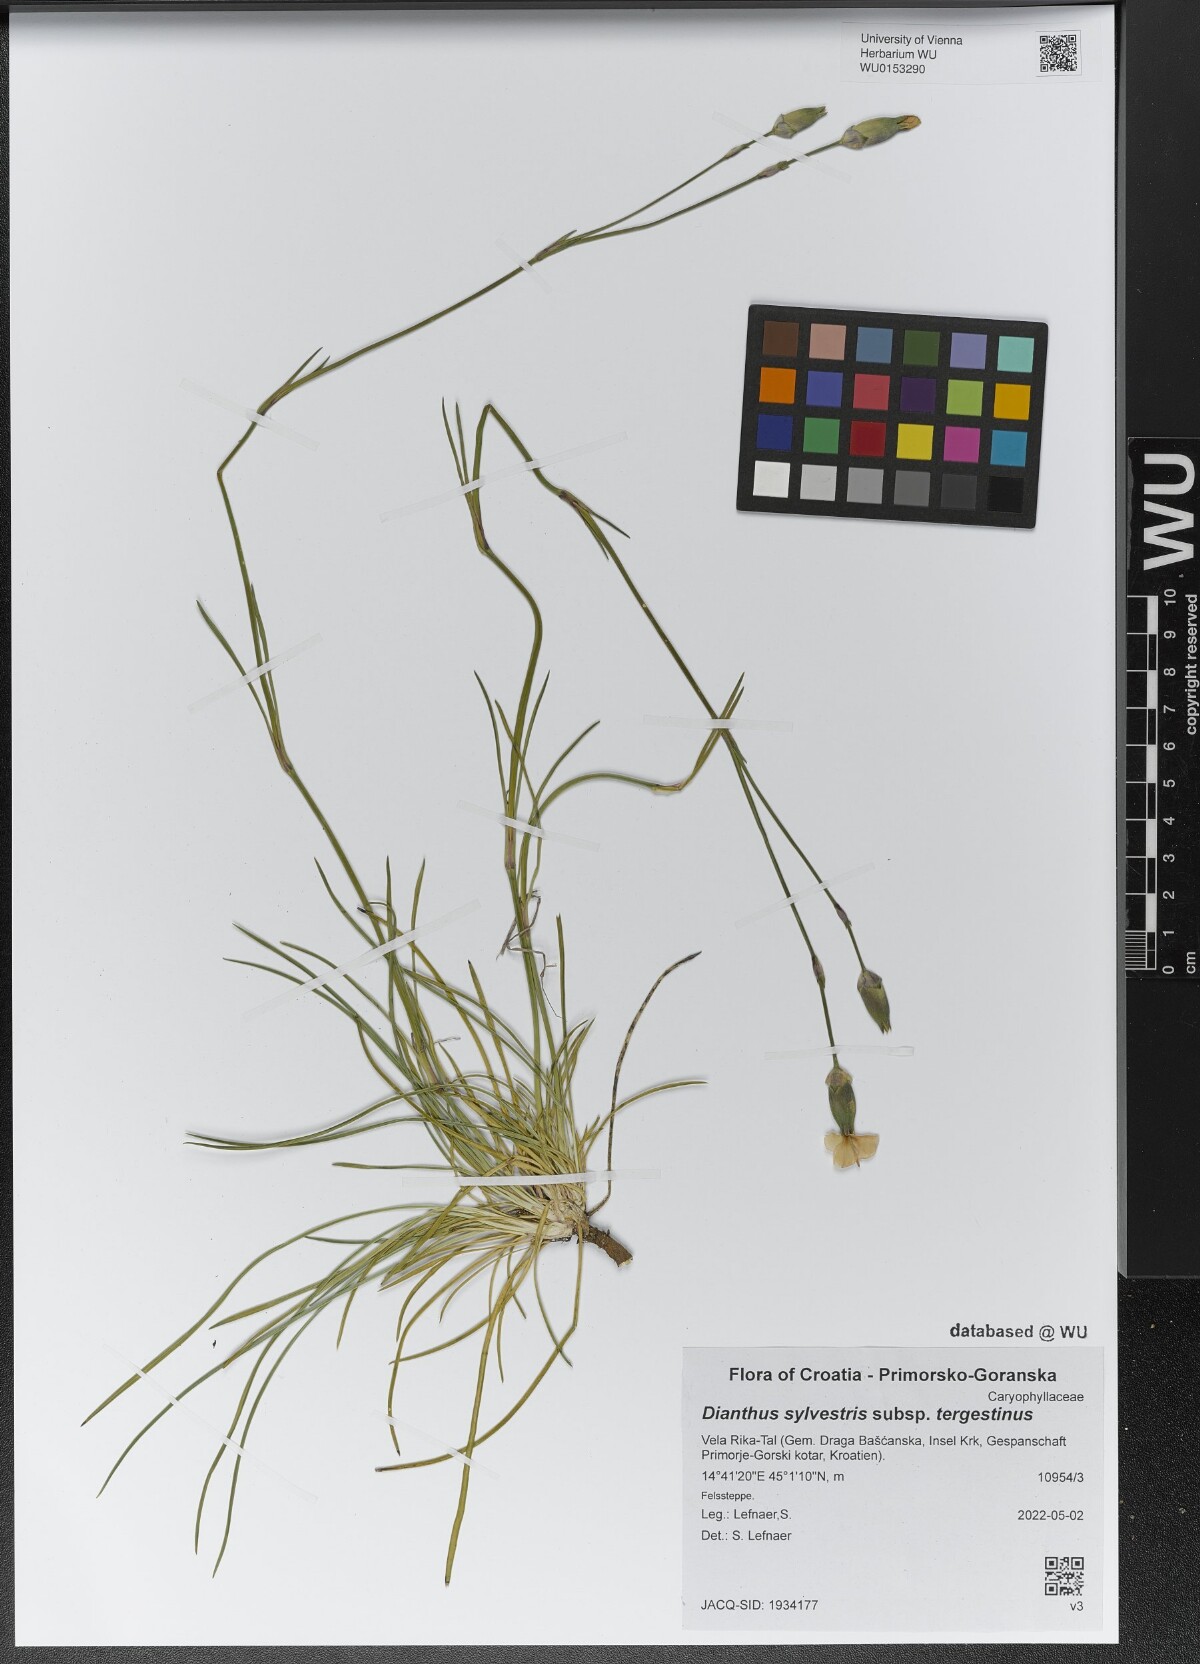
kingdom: Plantae
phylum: Tracheophyta
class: Magnoliopsida
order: Caryophyllales
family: Caryophyllaceae
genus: Dianthus
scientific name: Dianthus sylvestris
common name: Wood pink
